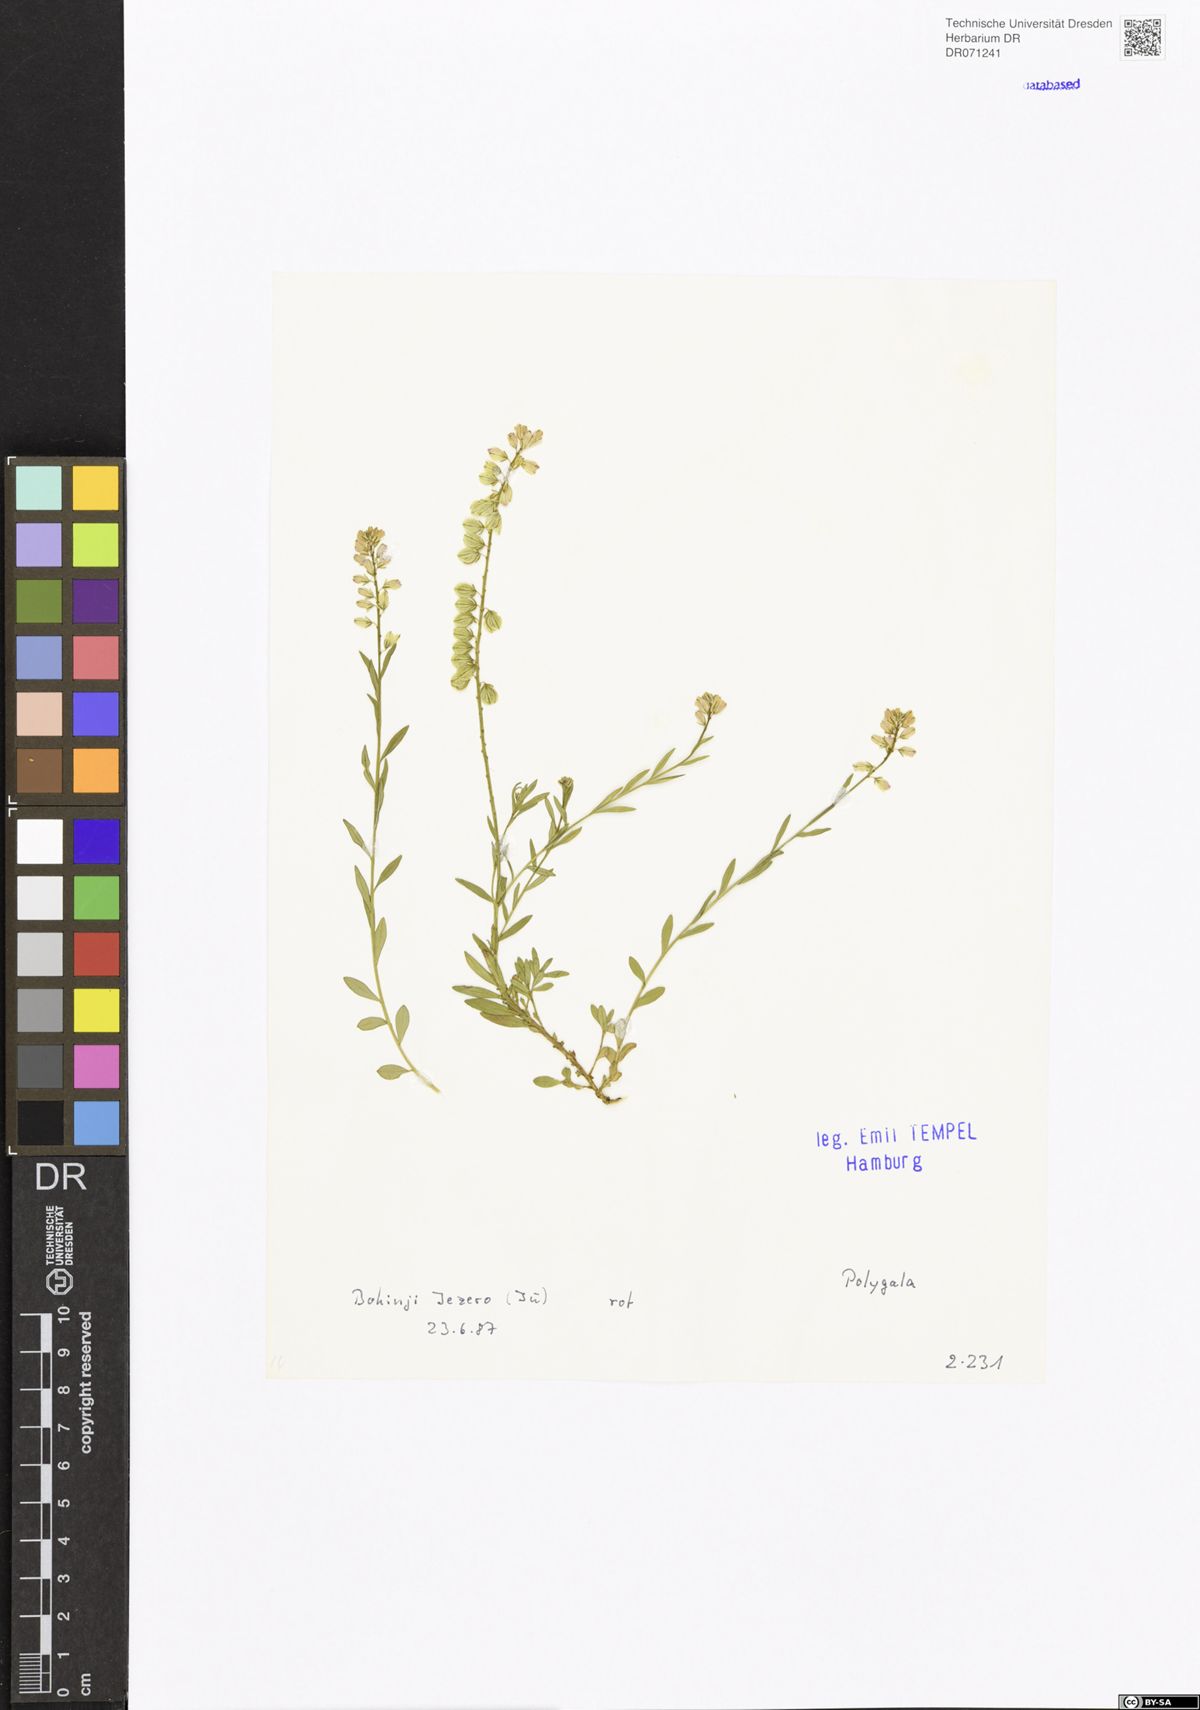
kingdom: Plantae
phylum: Tracheophyta
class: Magnoliopsida
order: Fabales
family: Polygalaceae
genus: Polygala
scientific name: Polygala
